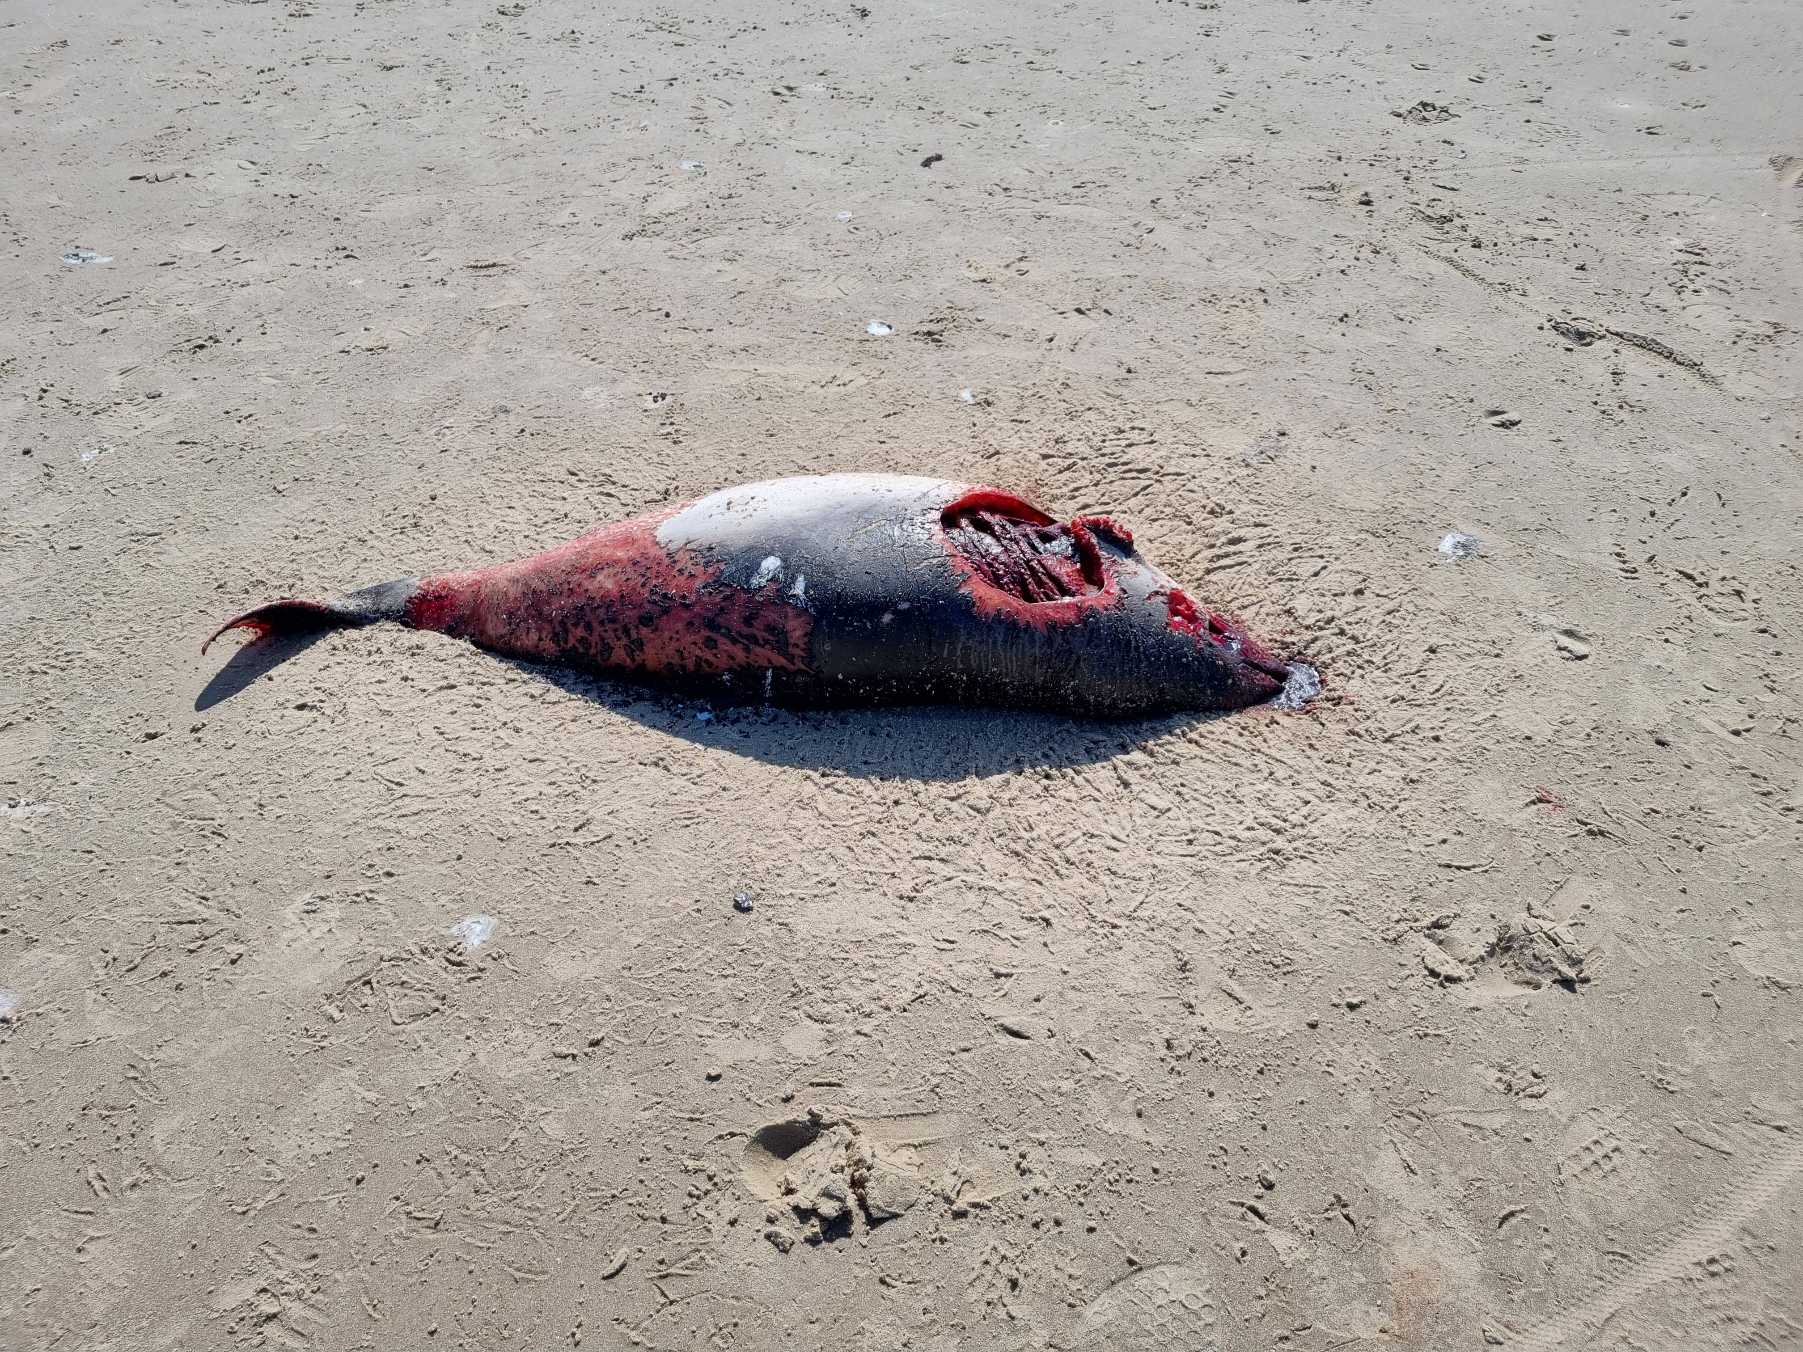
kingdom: Animalia
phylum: Chordata
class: Mammalia
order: Cetacea
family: Phocoenidae
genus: Phocoena
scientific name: Phocoena phocoena
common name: Marsvin
